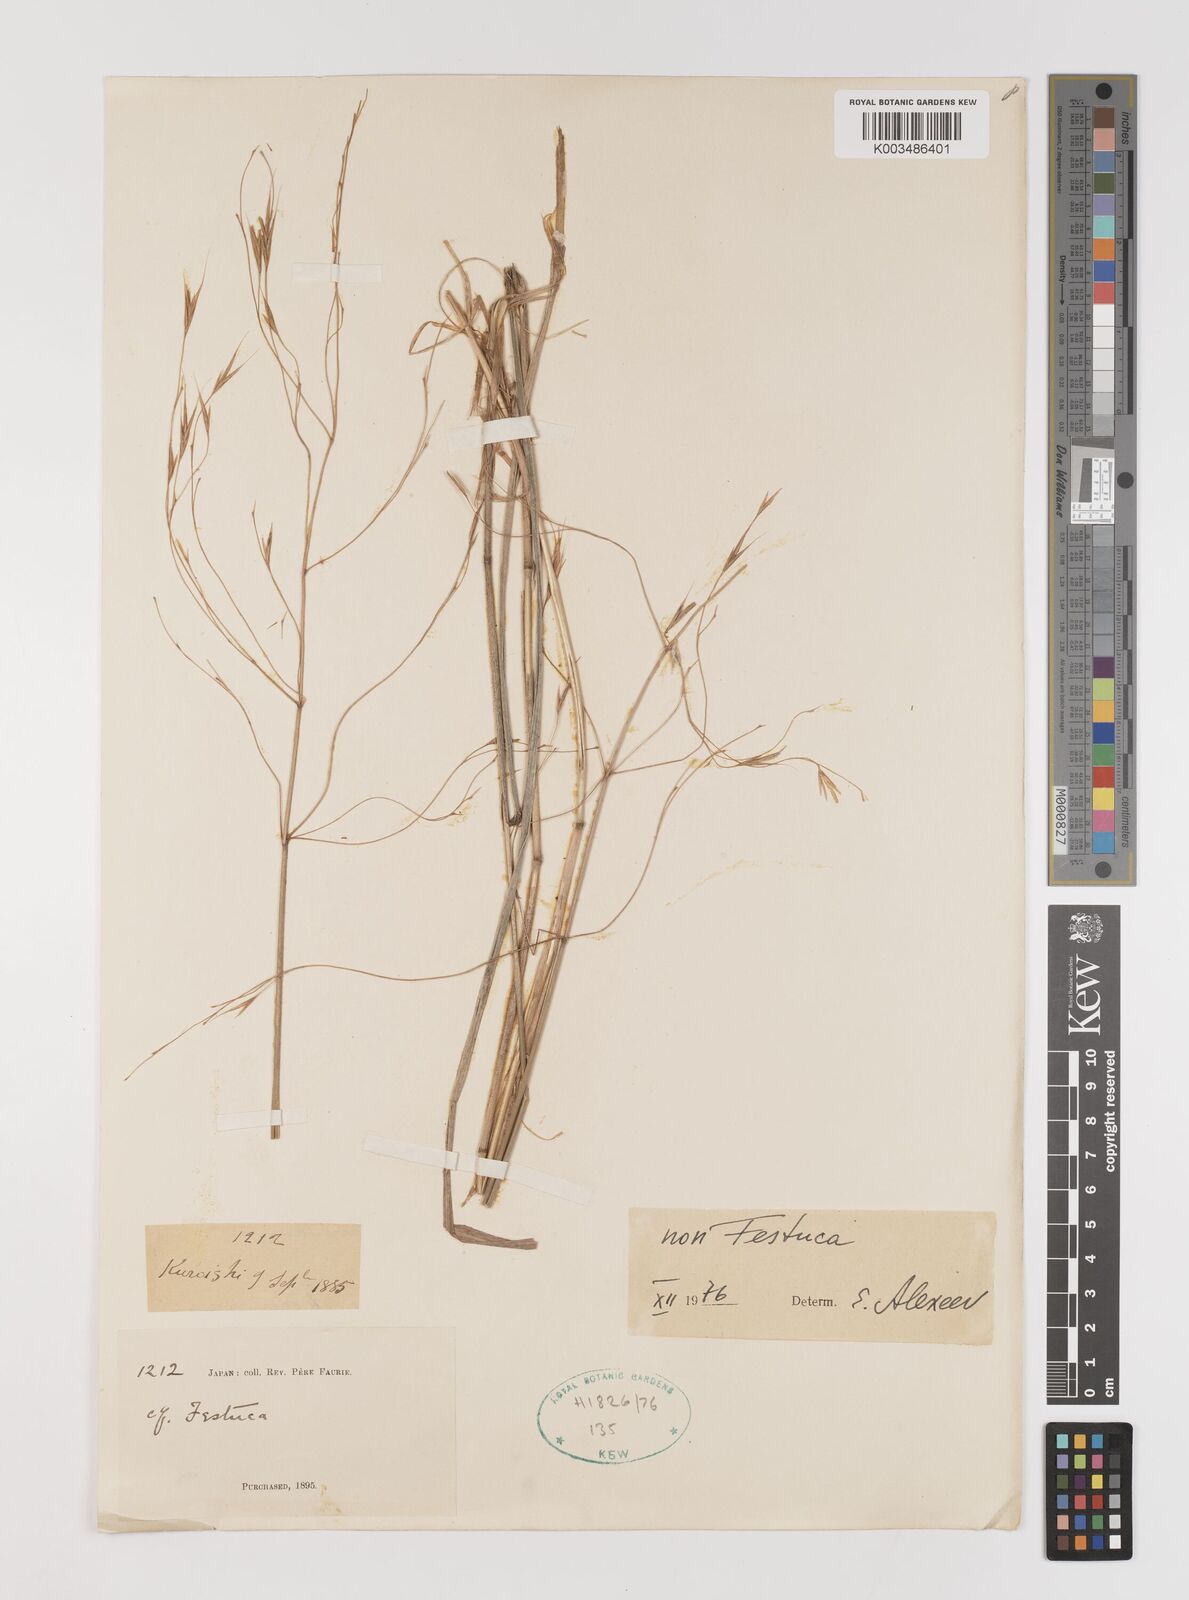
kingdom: Plantae
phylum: Tracheophyta
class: Liliopsida
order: Poales
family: Poaceae
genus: Bromus
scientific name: Bromus
